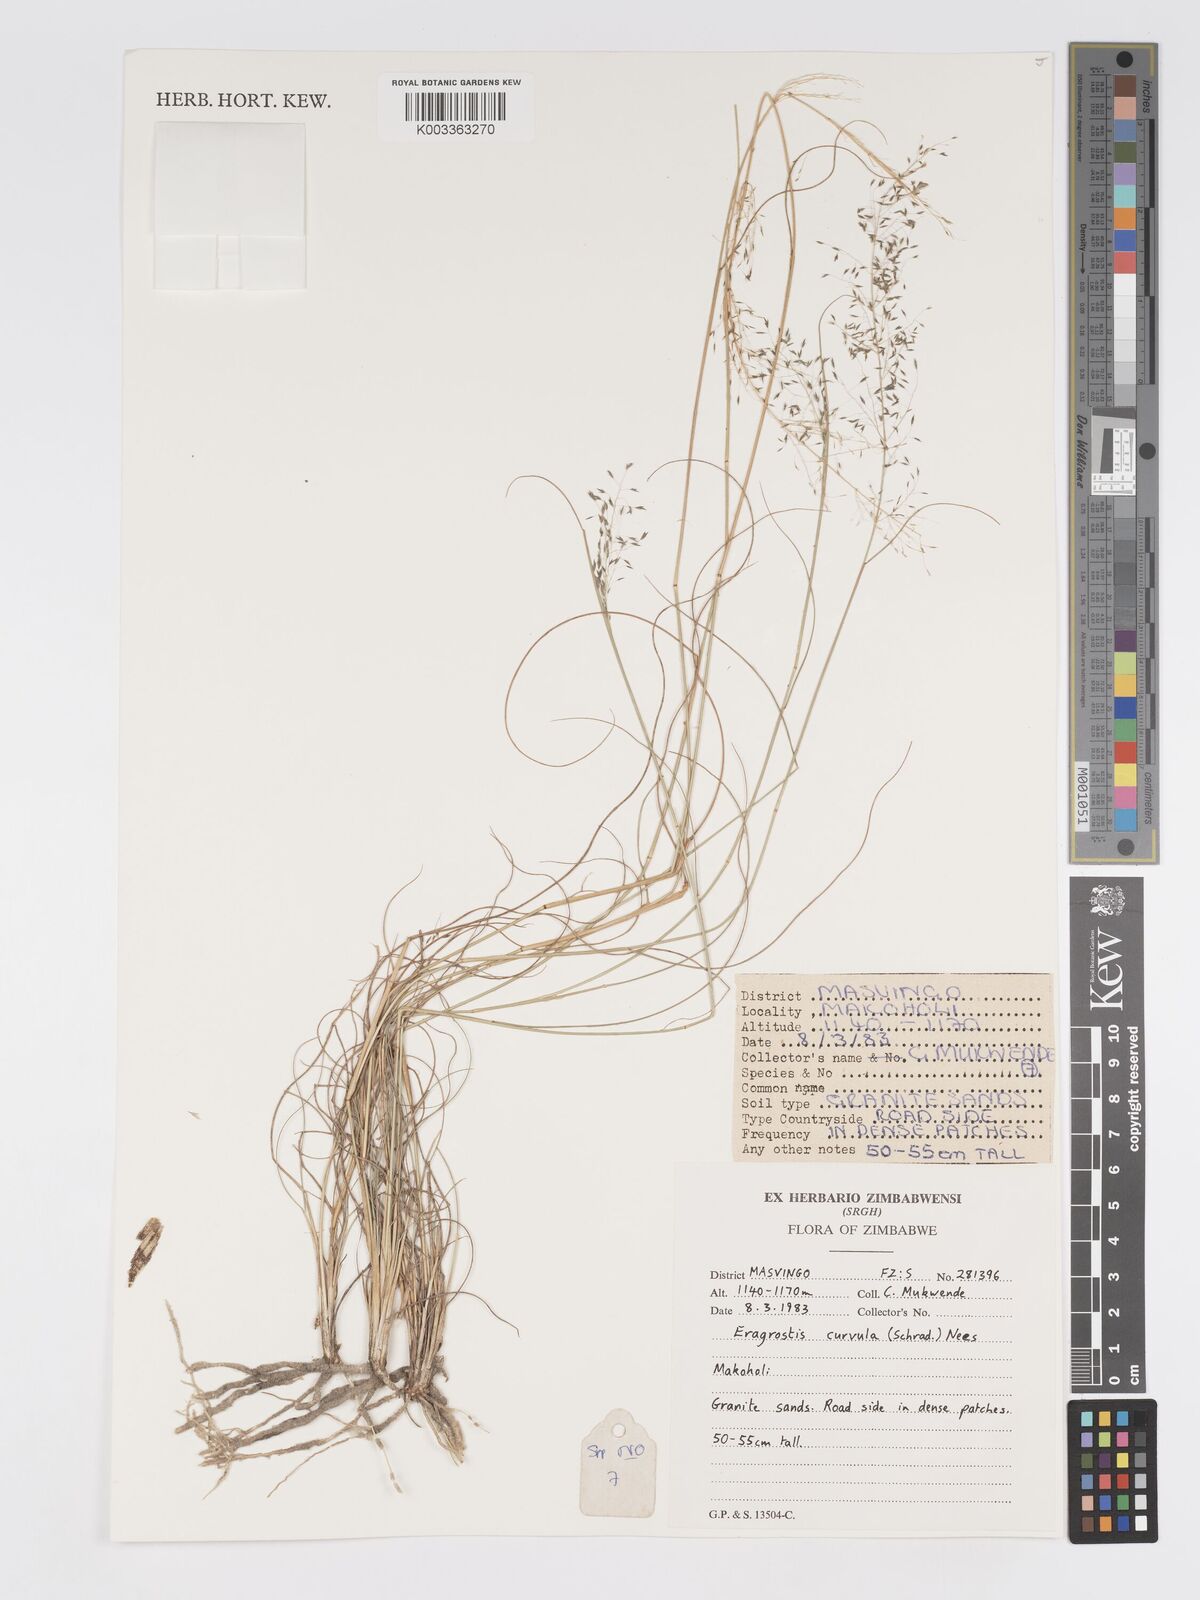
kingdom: Plantae
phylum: Tracheophyta
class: Liliopsida
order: Poales
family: Poaceae
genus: Eragrostis
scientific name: Eragrostis curvula
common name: African love-grass
